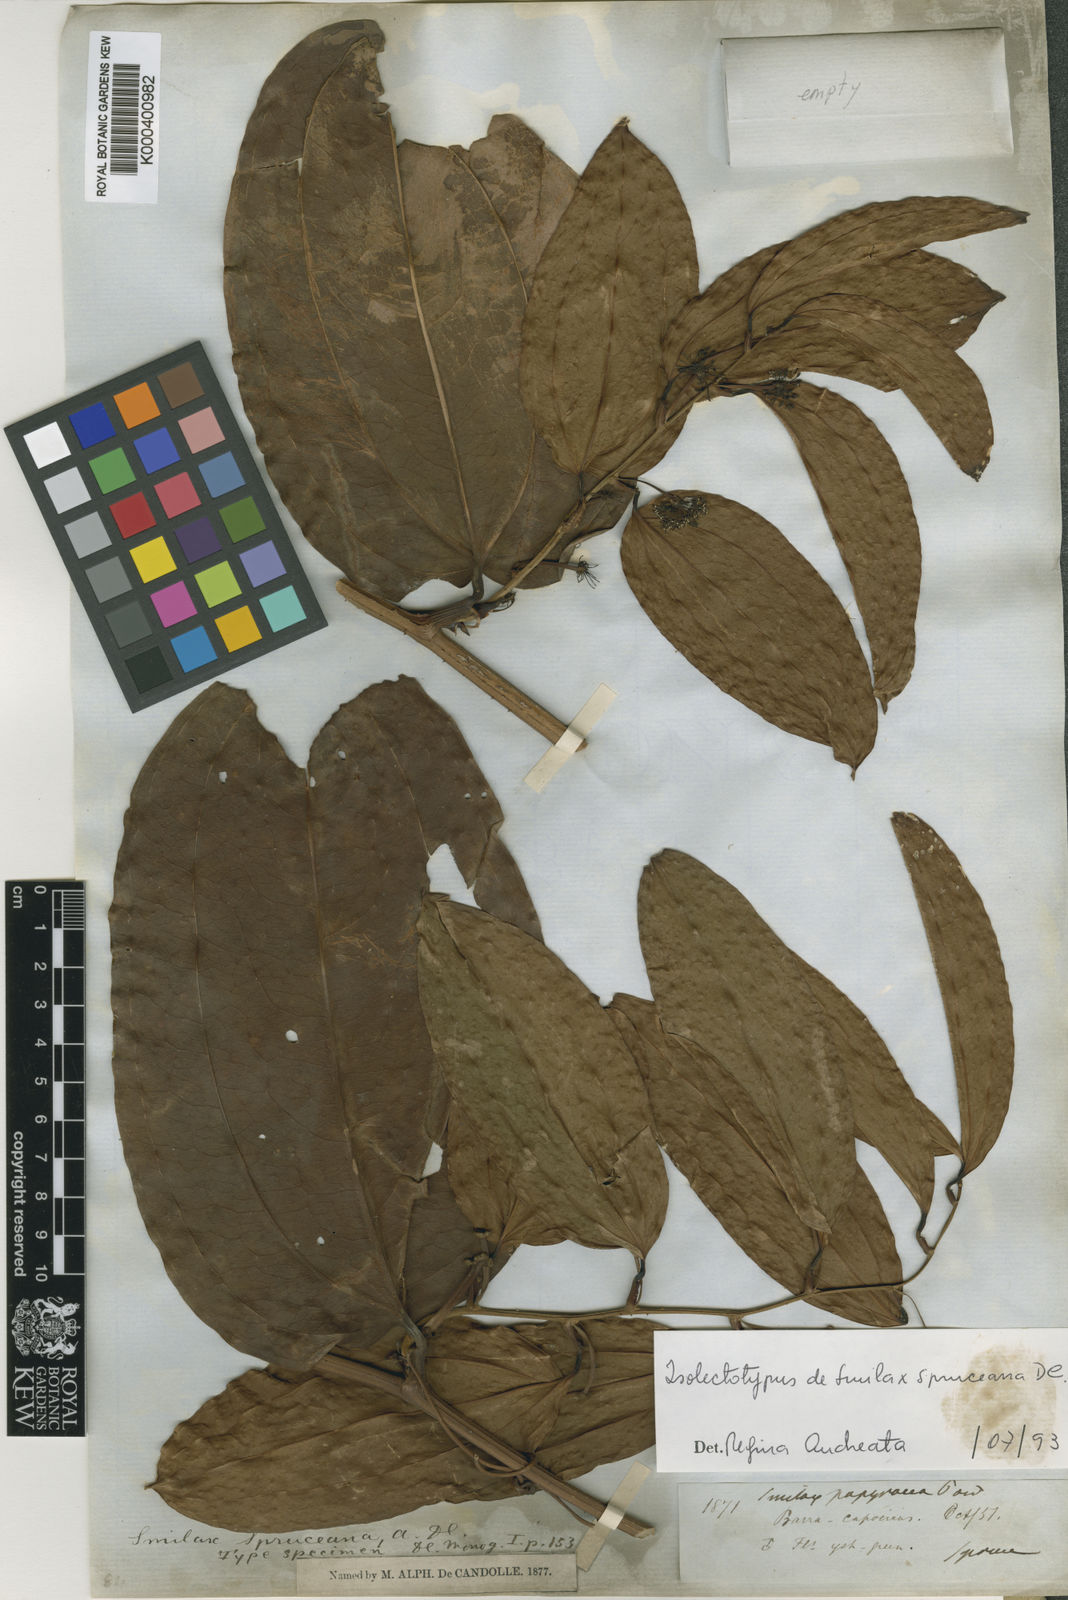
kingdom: Plantae
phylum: Tracheophyta
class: Liliopsida
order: Liliales
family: Smilacaceae
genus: Smilax
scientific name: Smilax spruceana
